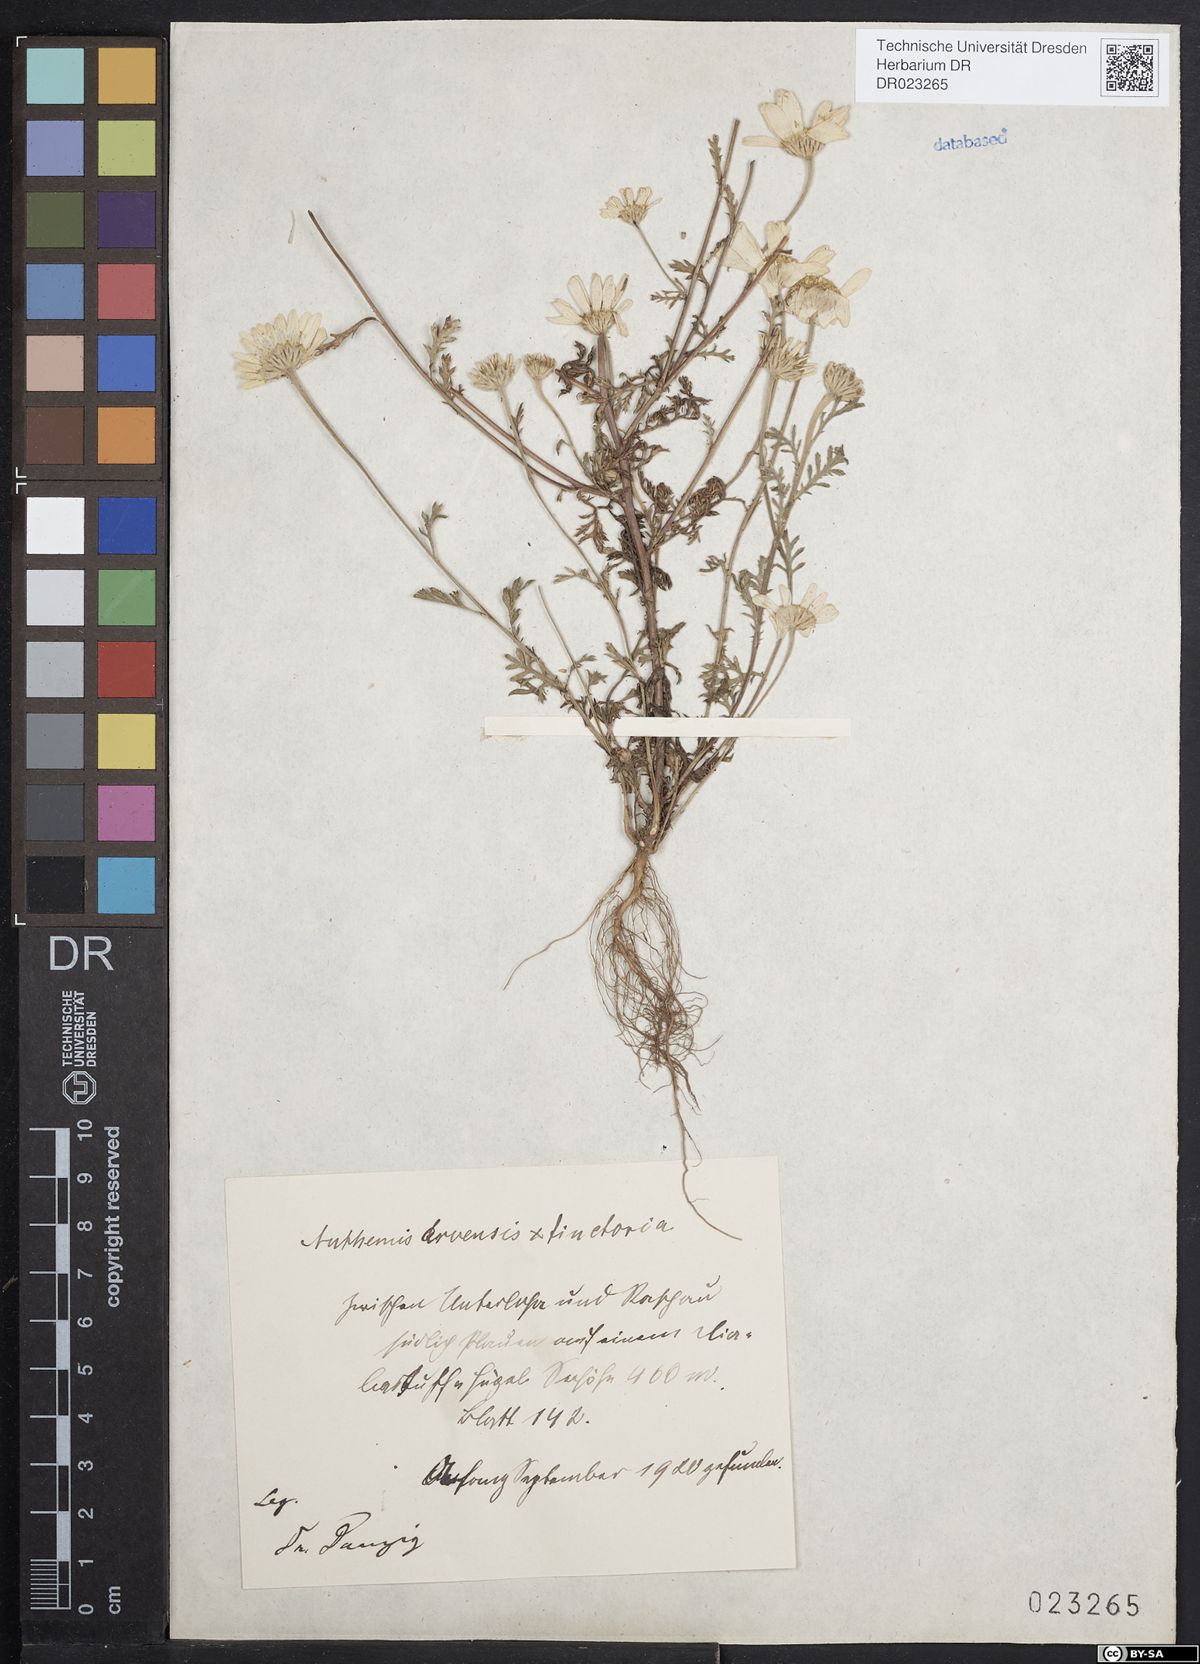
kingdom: Plantae
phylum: Tracheophyta
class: Magnoliopsida
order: Asterales
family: Asteraceae
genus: Anthemis
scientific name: Anthemis arvensis
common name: Corn chamomile
